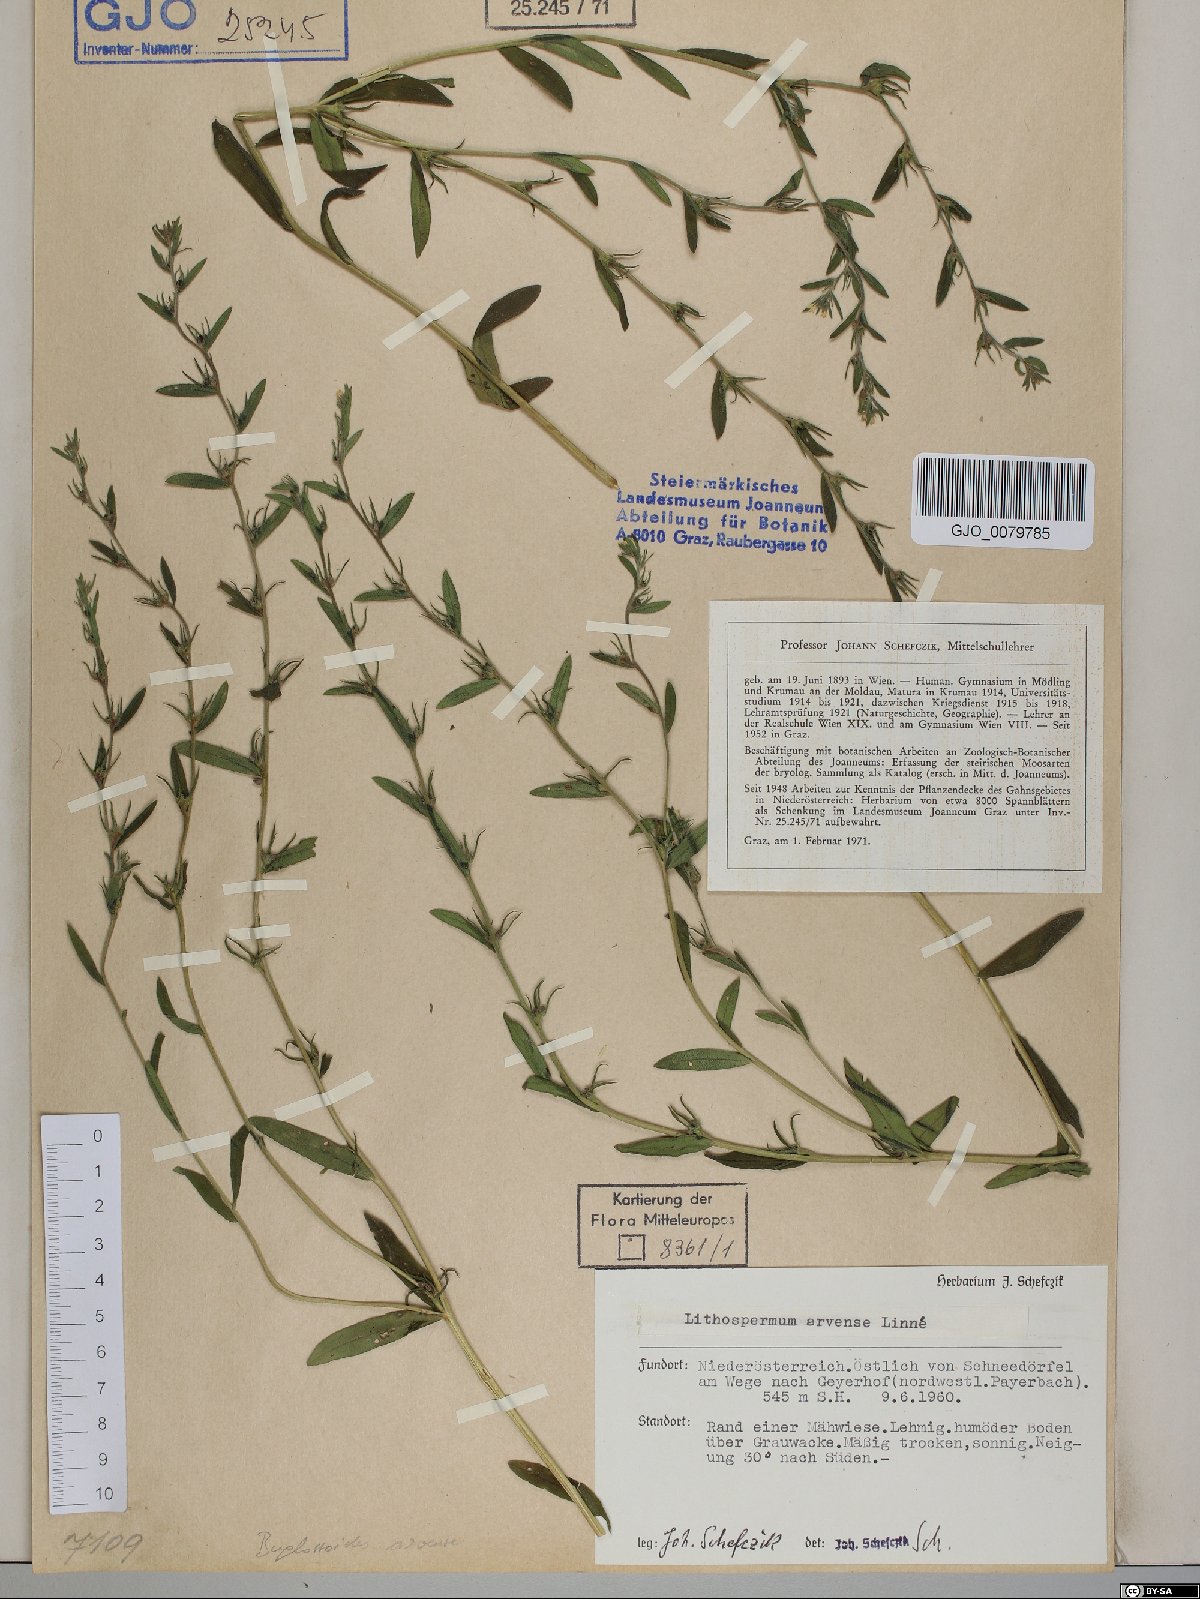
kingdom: Plantae
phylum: Tracheophyta
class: Magnoliopsida
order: Boraginales
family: Boraginaceae
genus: Buglossoides
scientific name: Buglossoides arvensis
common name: Corn gromwell
